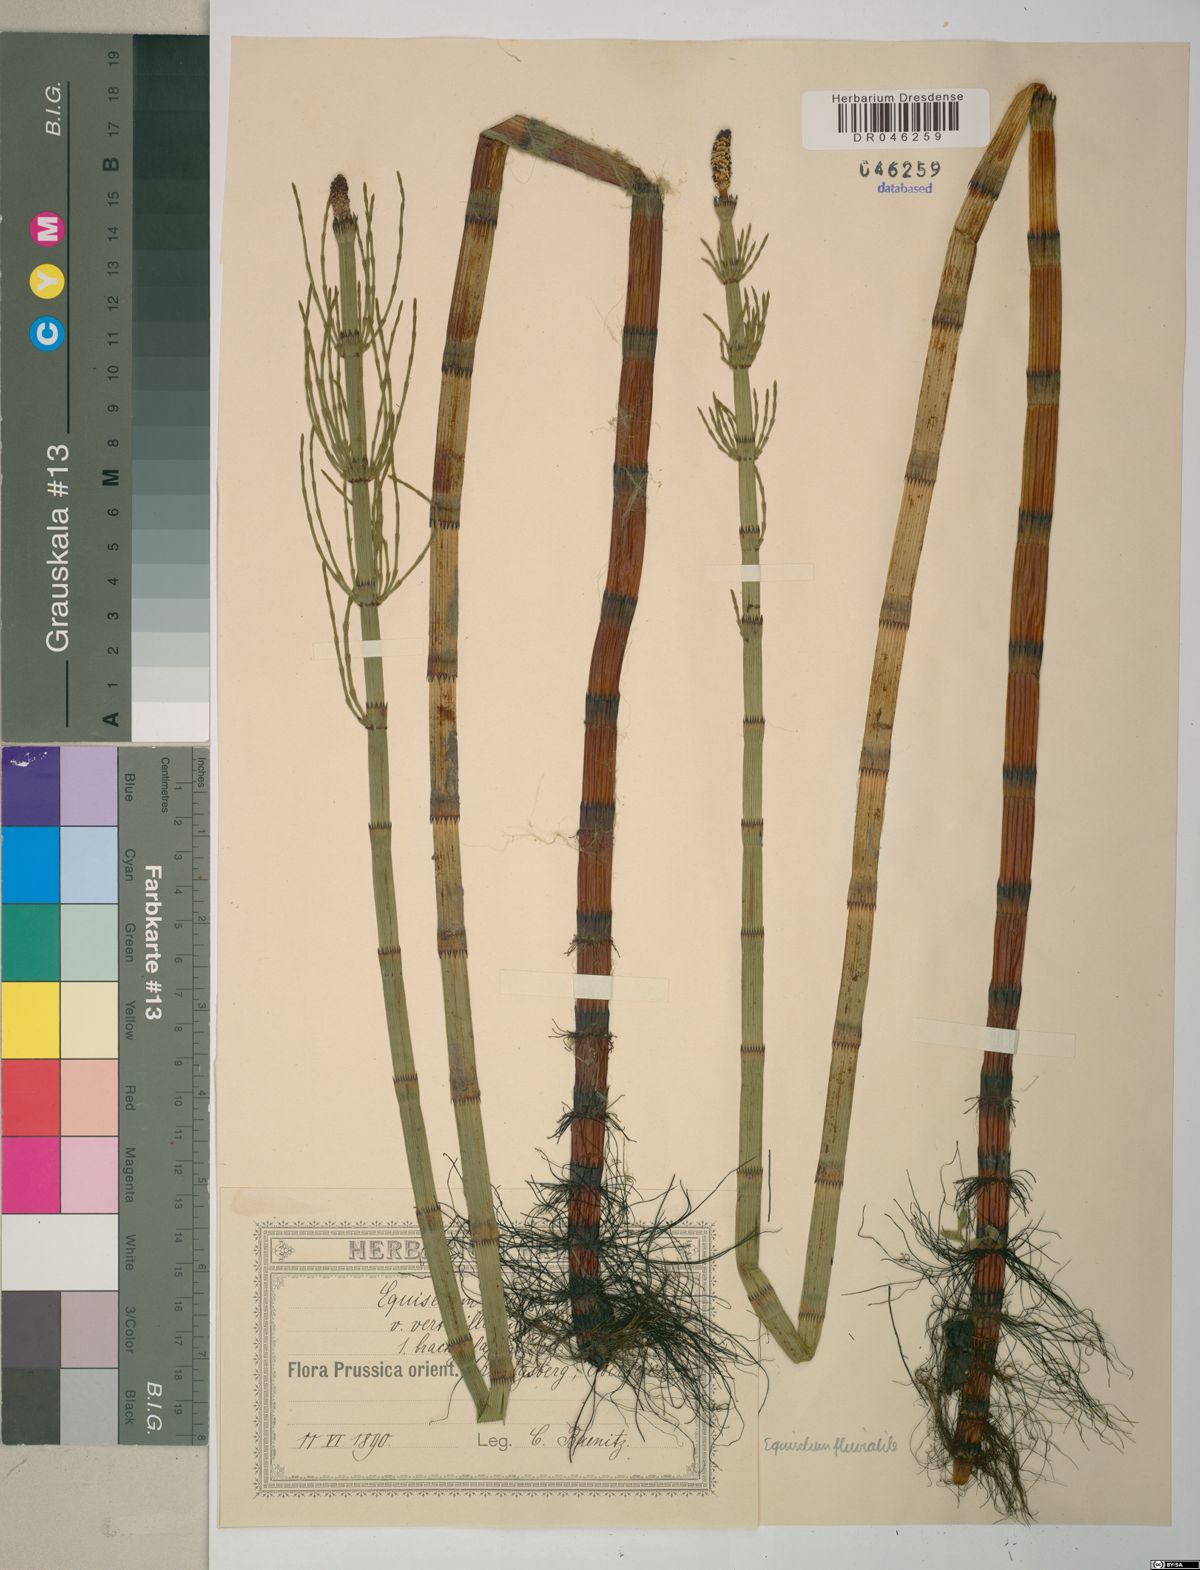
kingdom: Plantae
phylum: Tracheophyta
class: Polypodiopsida
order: Equisetales
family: Equisetaceae
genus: Equisetum
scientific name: Equisetum fluviatile
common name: Water horsetail
